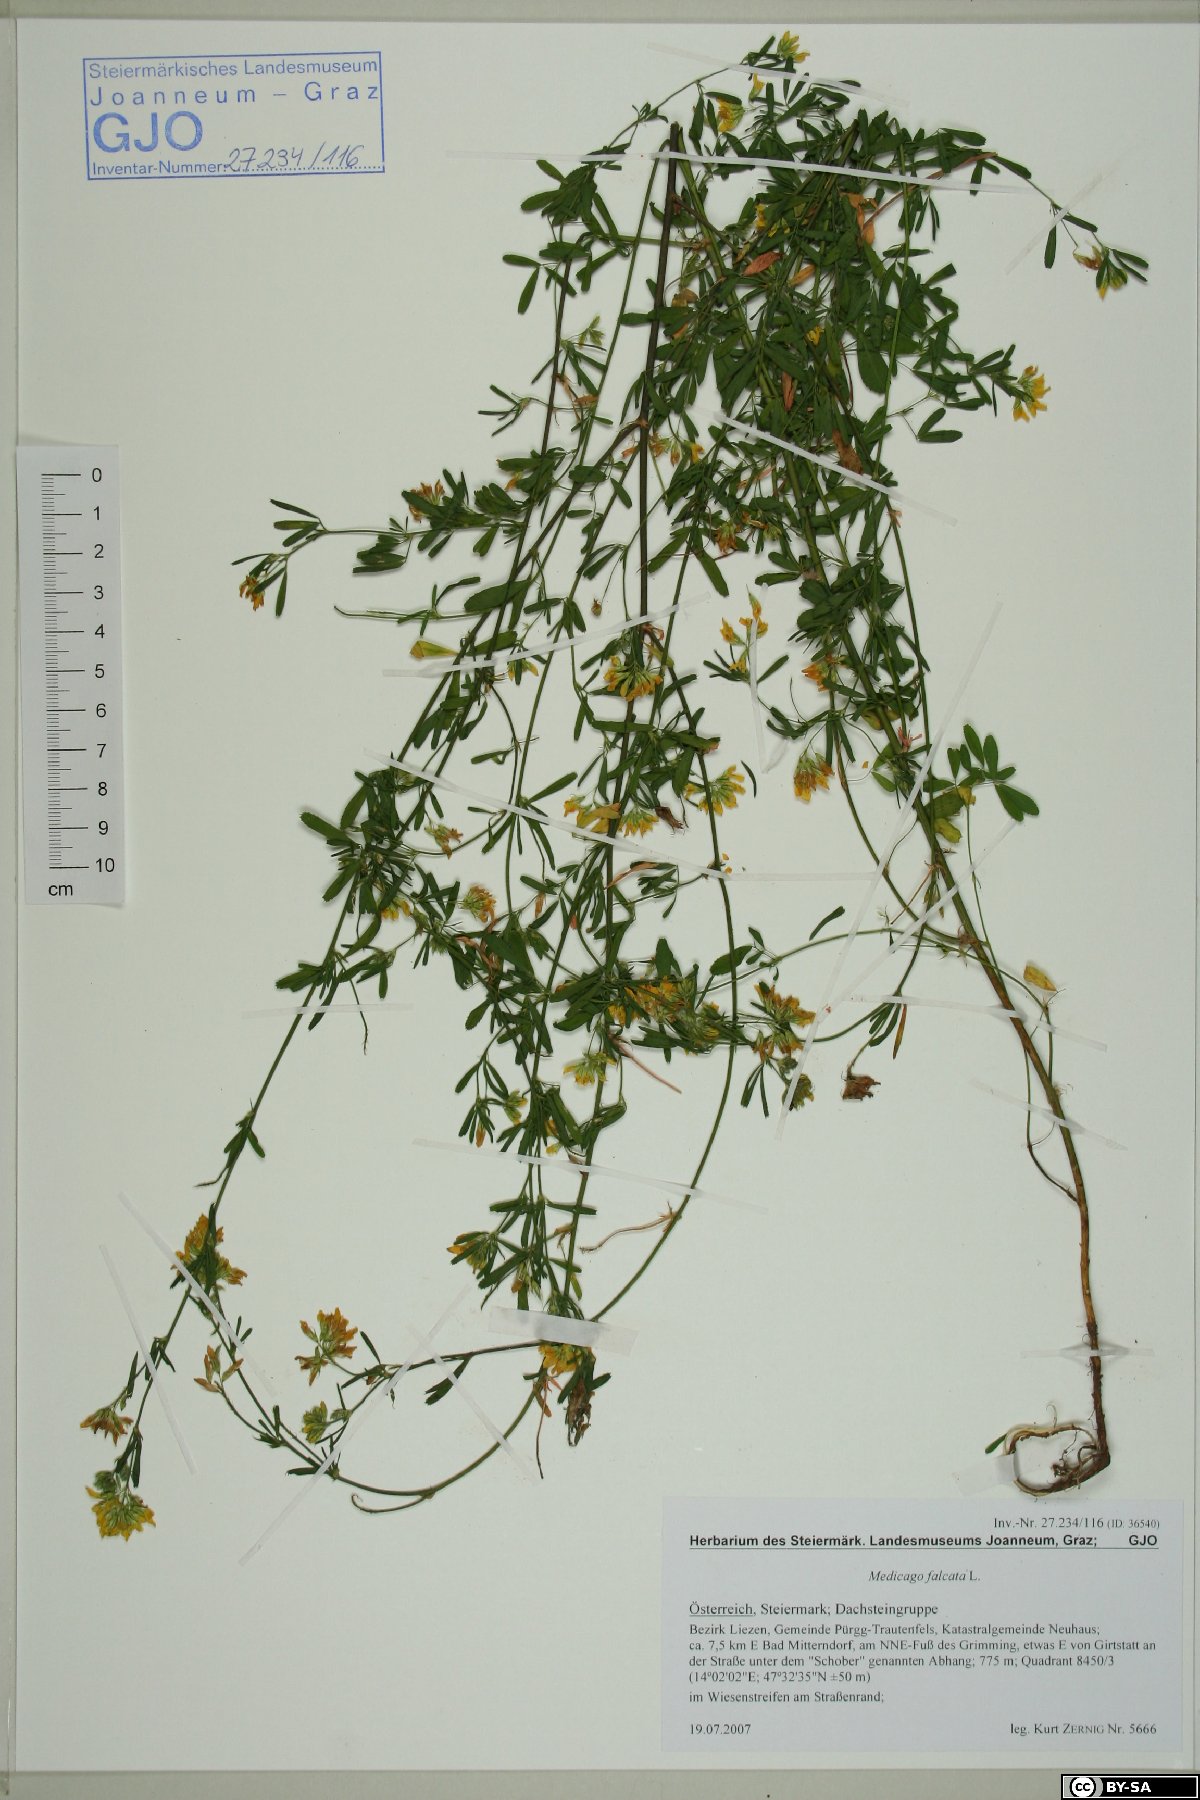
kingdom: Plantae
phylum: Tracheophyta
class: Magnoliopsida
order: Fabales
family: Fabaceae
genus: Medicago
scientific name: Medicago falcata
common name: Sickle medick
